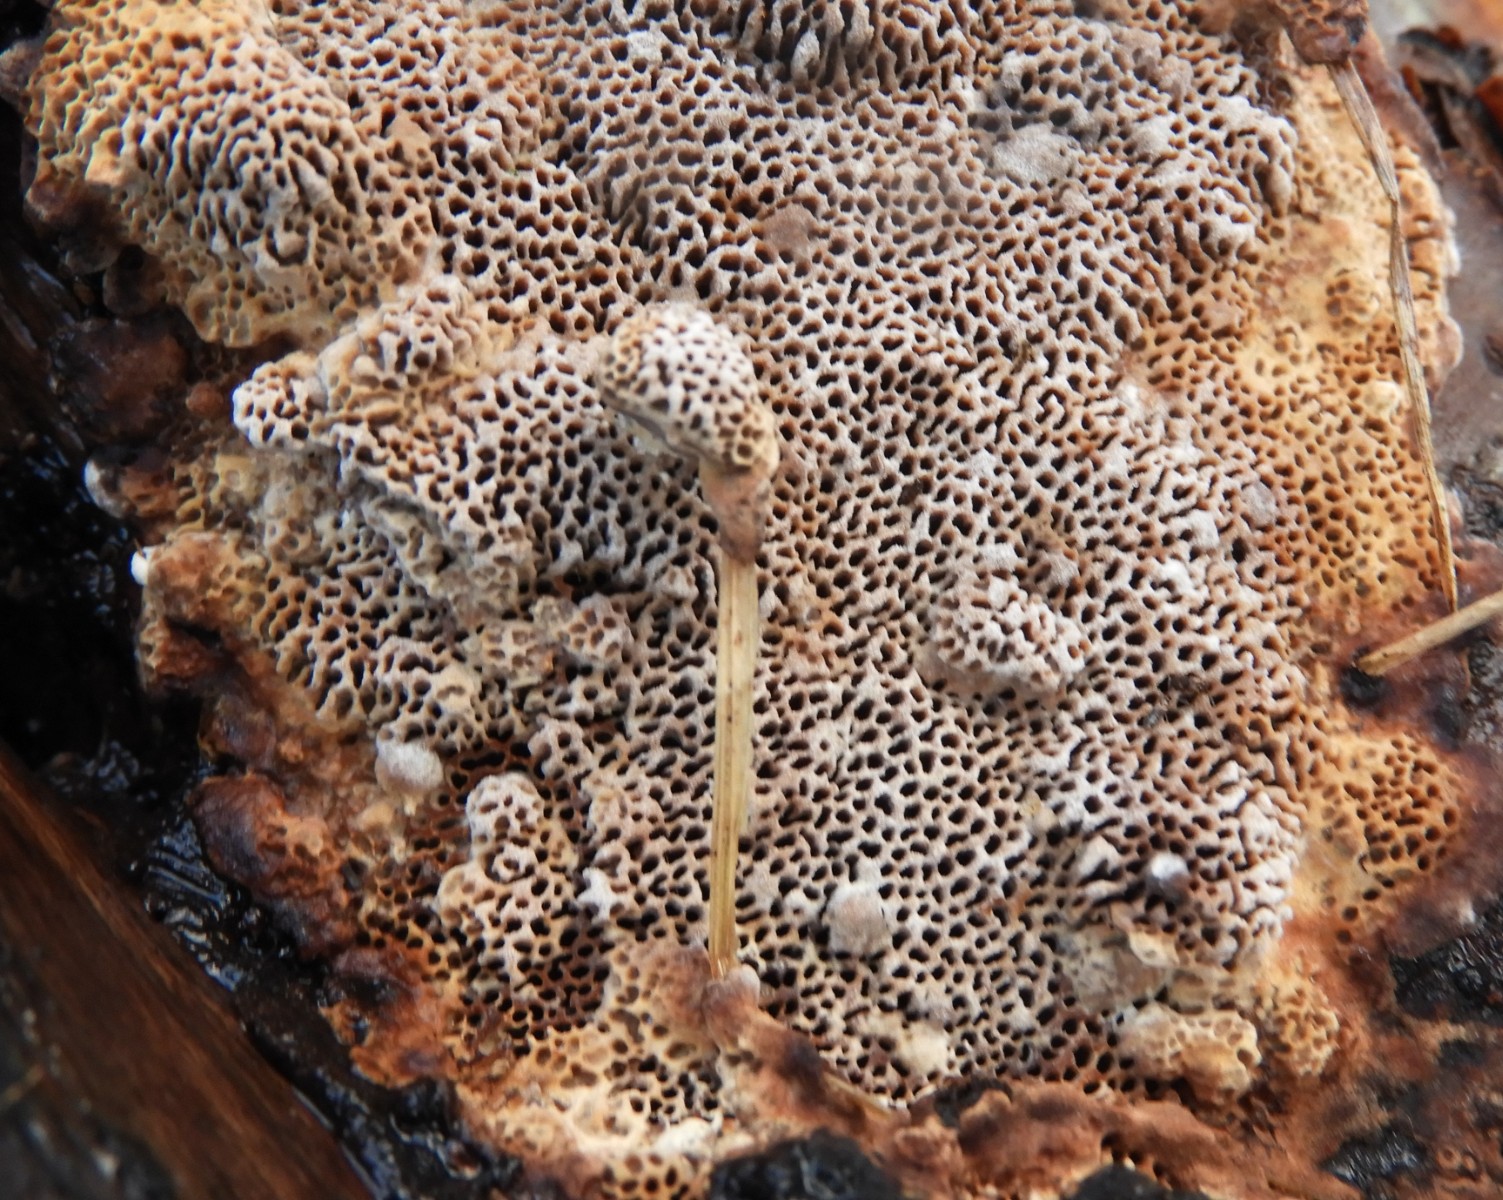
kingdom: Fungi
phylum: Basidiomycota
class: Agaricomycetes
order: Polyporales
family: Polyporaceae
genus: Podofomes
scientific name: Podofomes mollis
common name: blød begporesvamp
